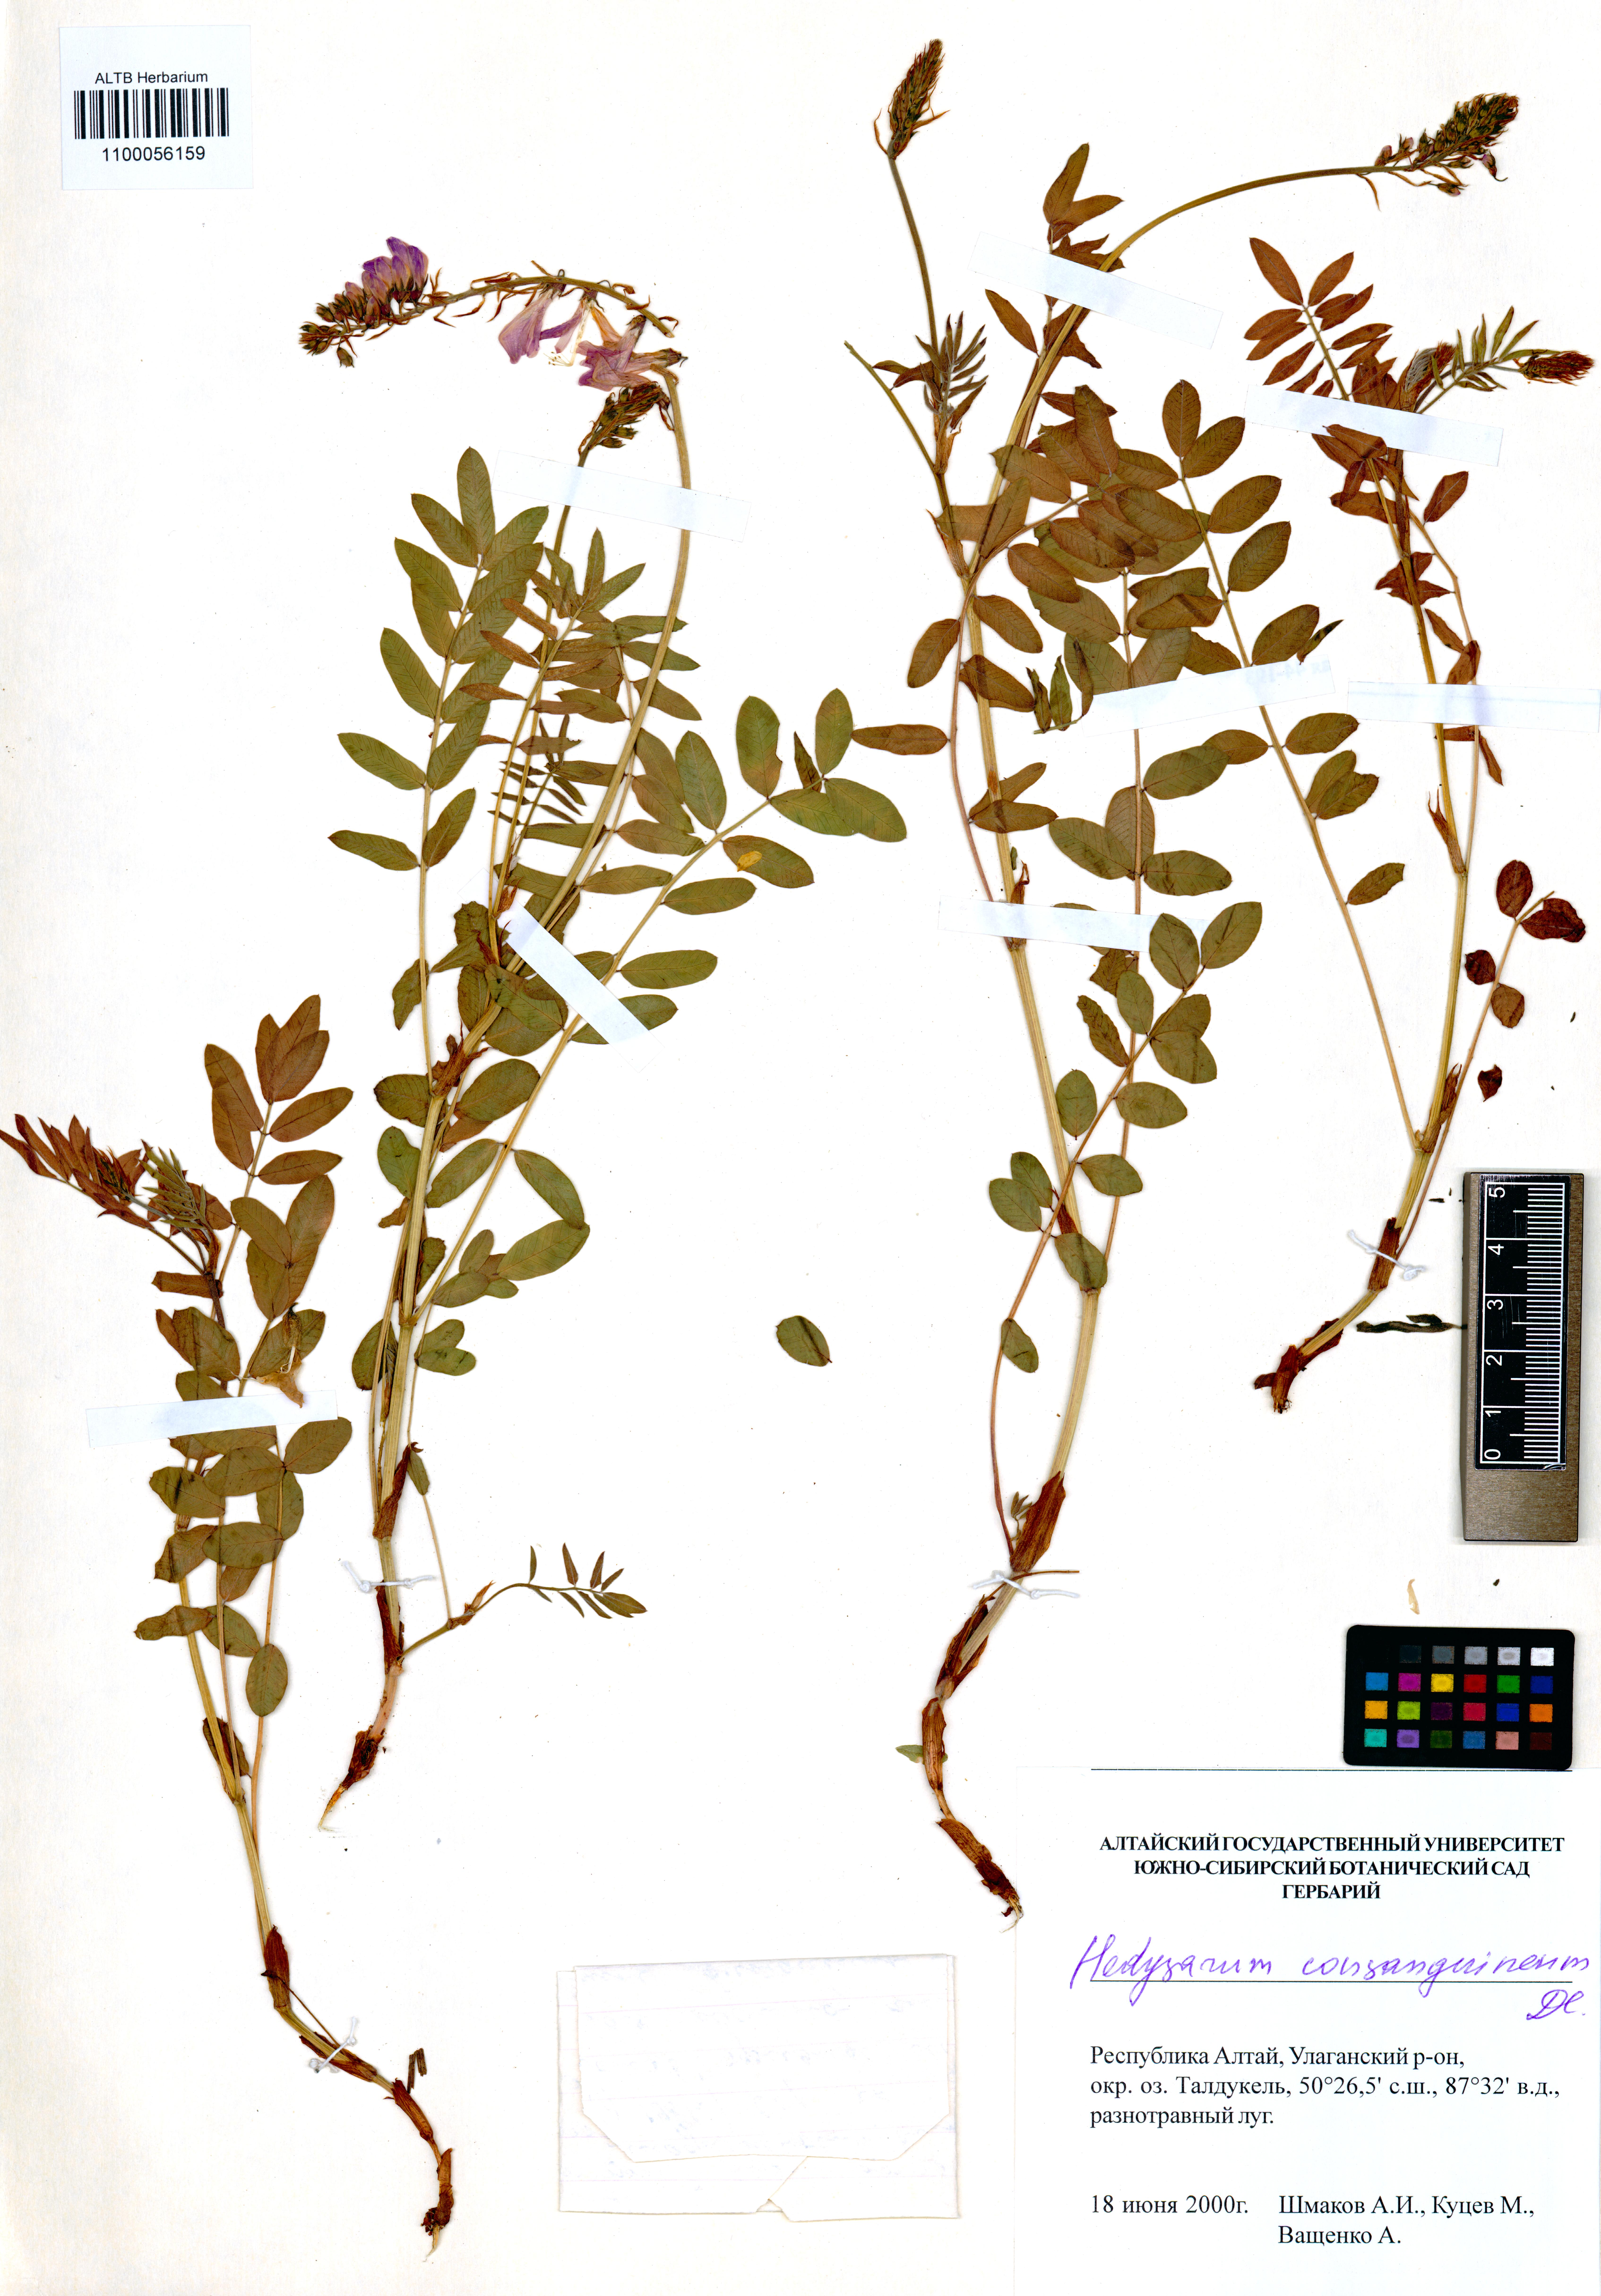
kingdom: Plantae
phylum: Tracheophyta
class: Magnoliopsida
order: Fabales
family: Fabaceae
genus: Hedysarum
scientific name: Hedysarum consanguineum
